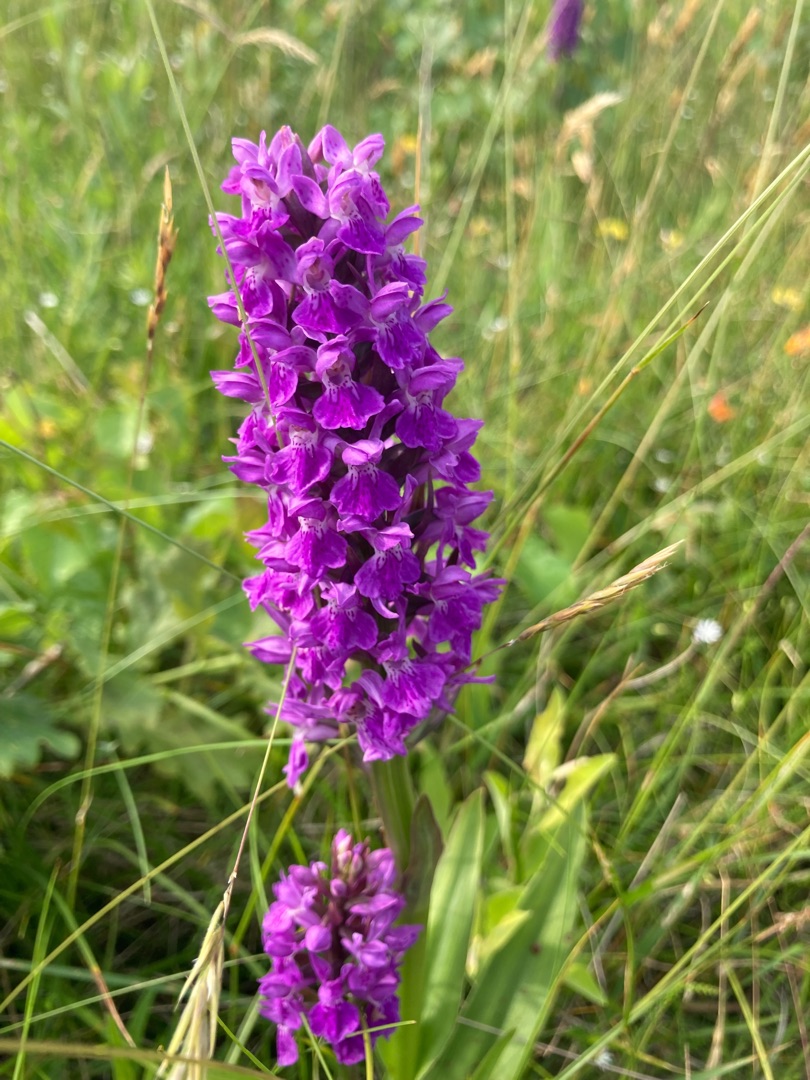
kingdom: Plantae
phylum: Tracheophyta
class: Liliopsida
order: Asparagales
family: Orchidaceae
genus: Dactylorhiza
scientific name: Dactylorhiza majalis
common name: Purpur-gøgeurt
